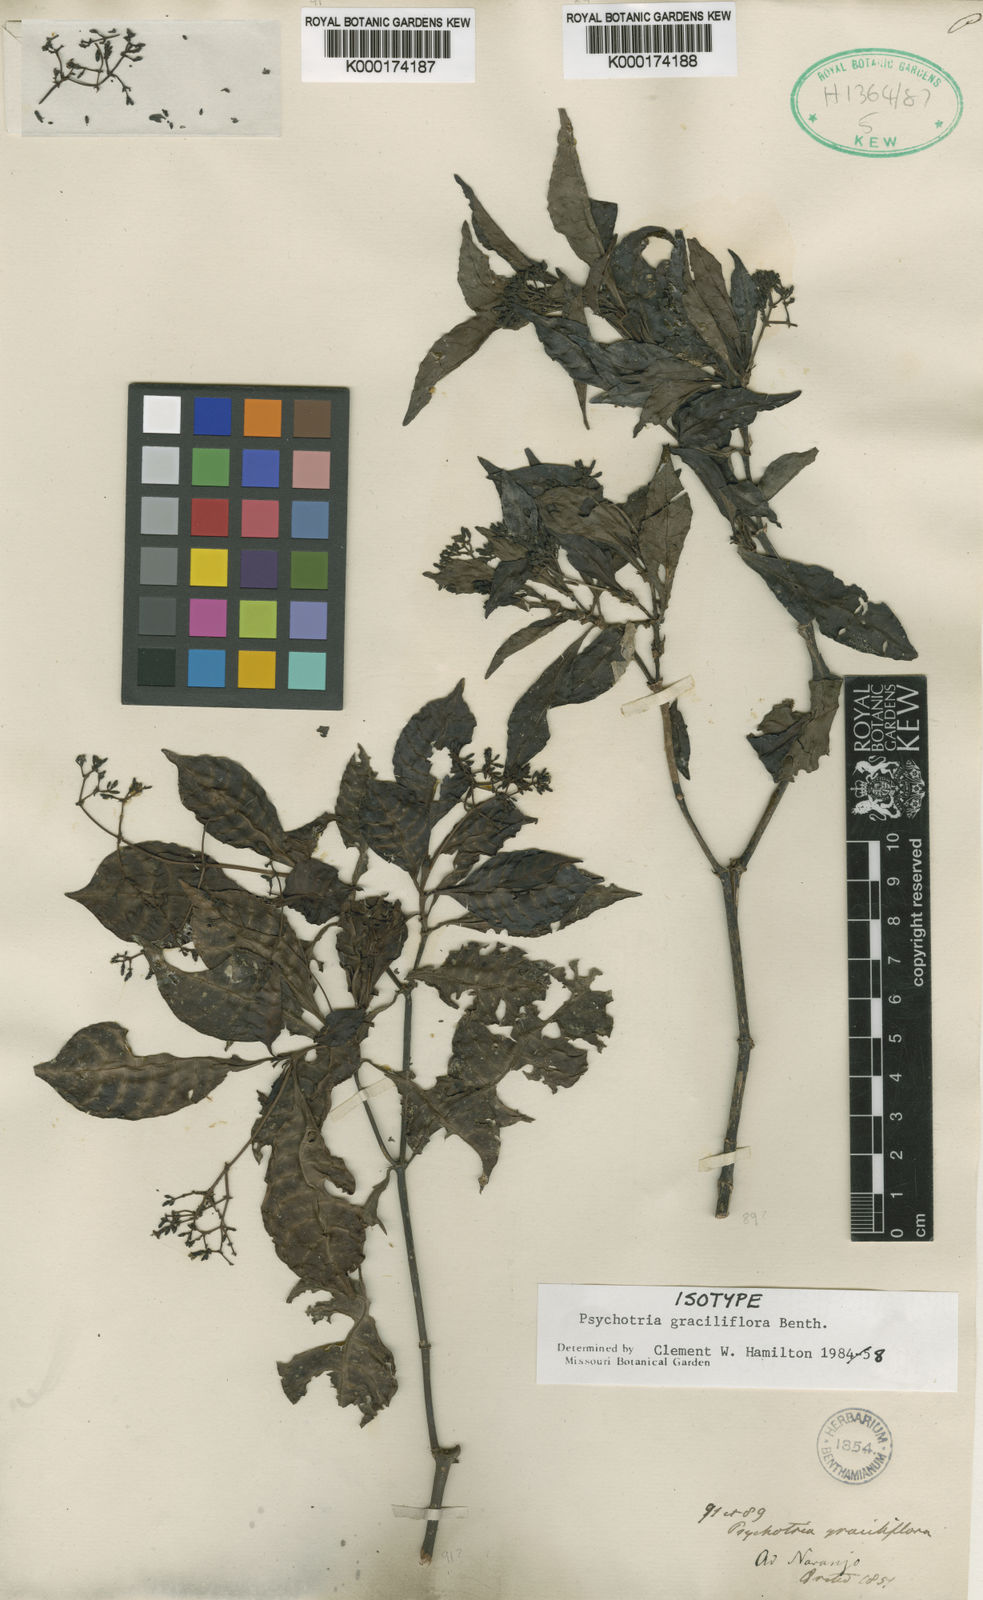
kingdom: Plantae
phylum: Tracheophyta
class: Magnoliopsida
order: Gentianales
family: Rubiaceae
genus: Psychotria
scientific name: Psychotria
